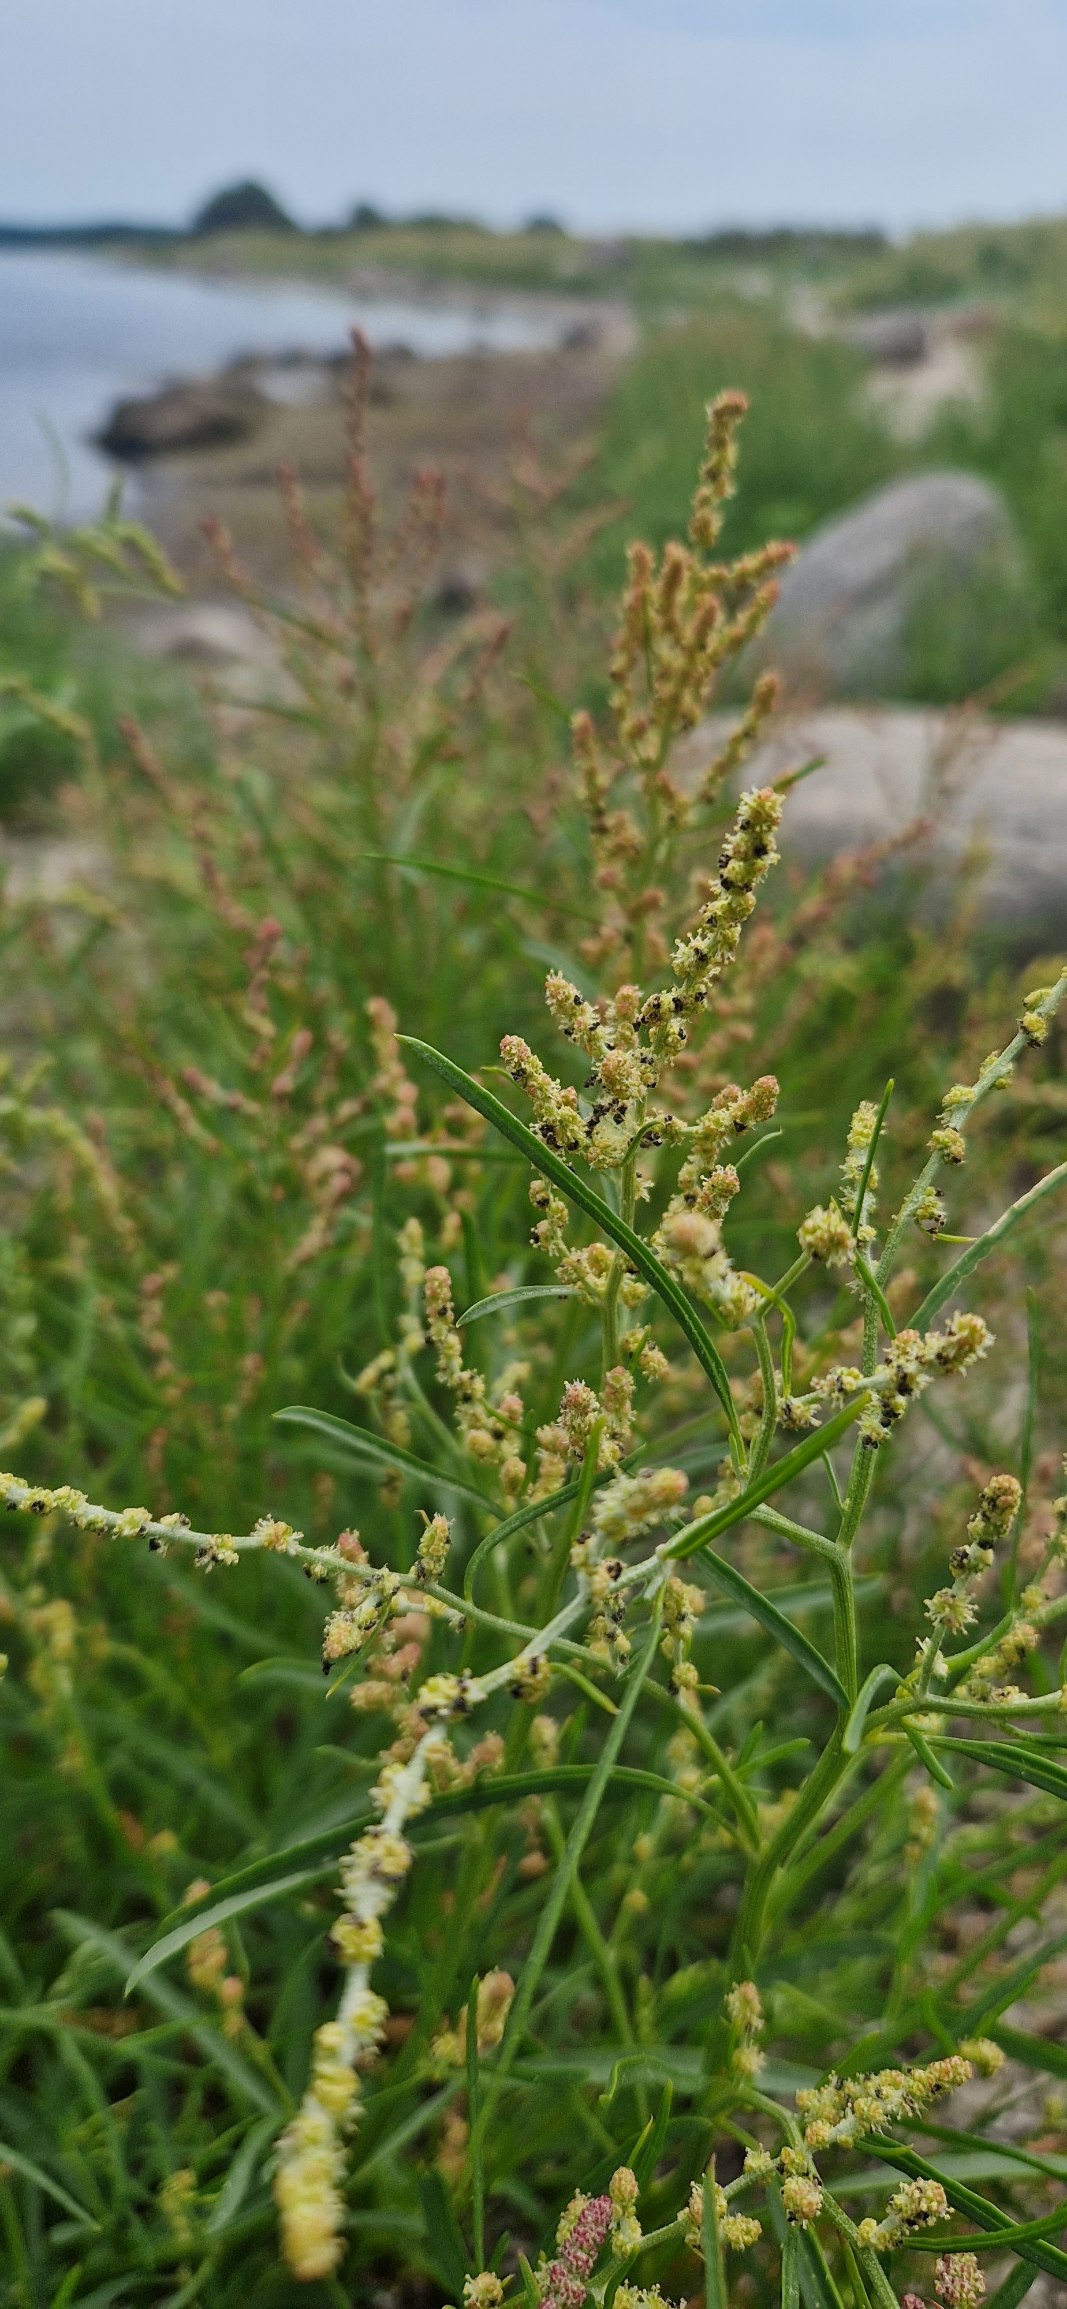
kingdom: Plantae
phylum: Tracheophyta
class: Magnoliopsida
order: Caryophyllales
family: Amaranthaceae
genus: Atriplex
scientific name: Atriplex littoralis
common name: Strand-mælde
